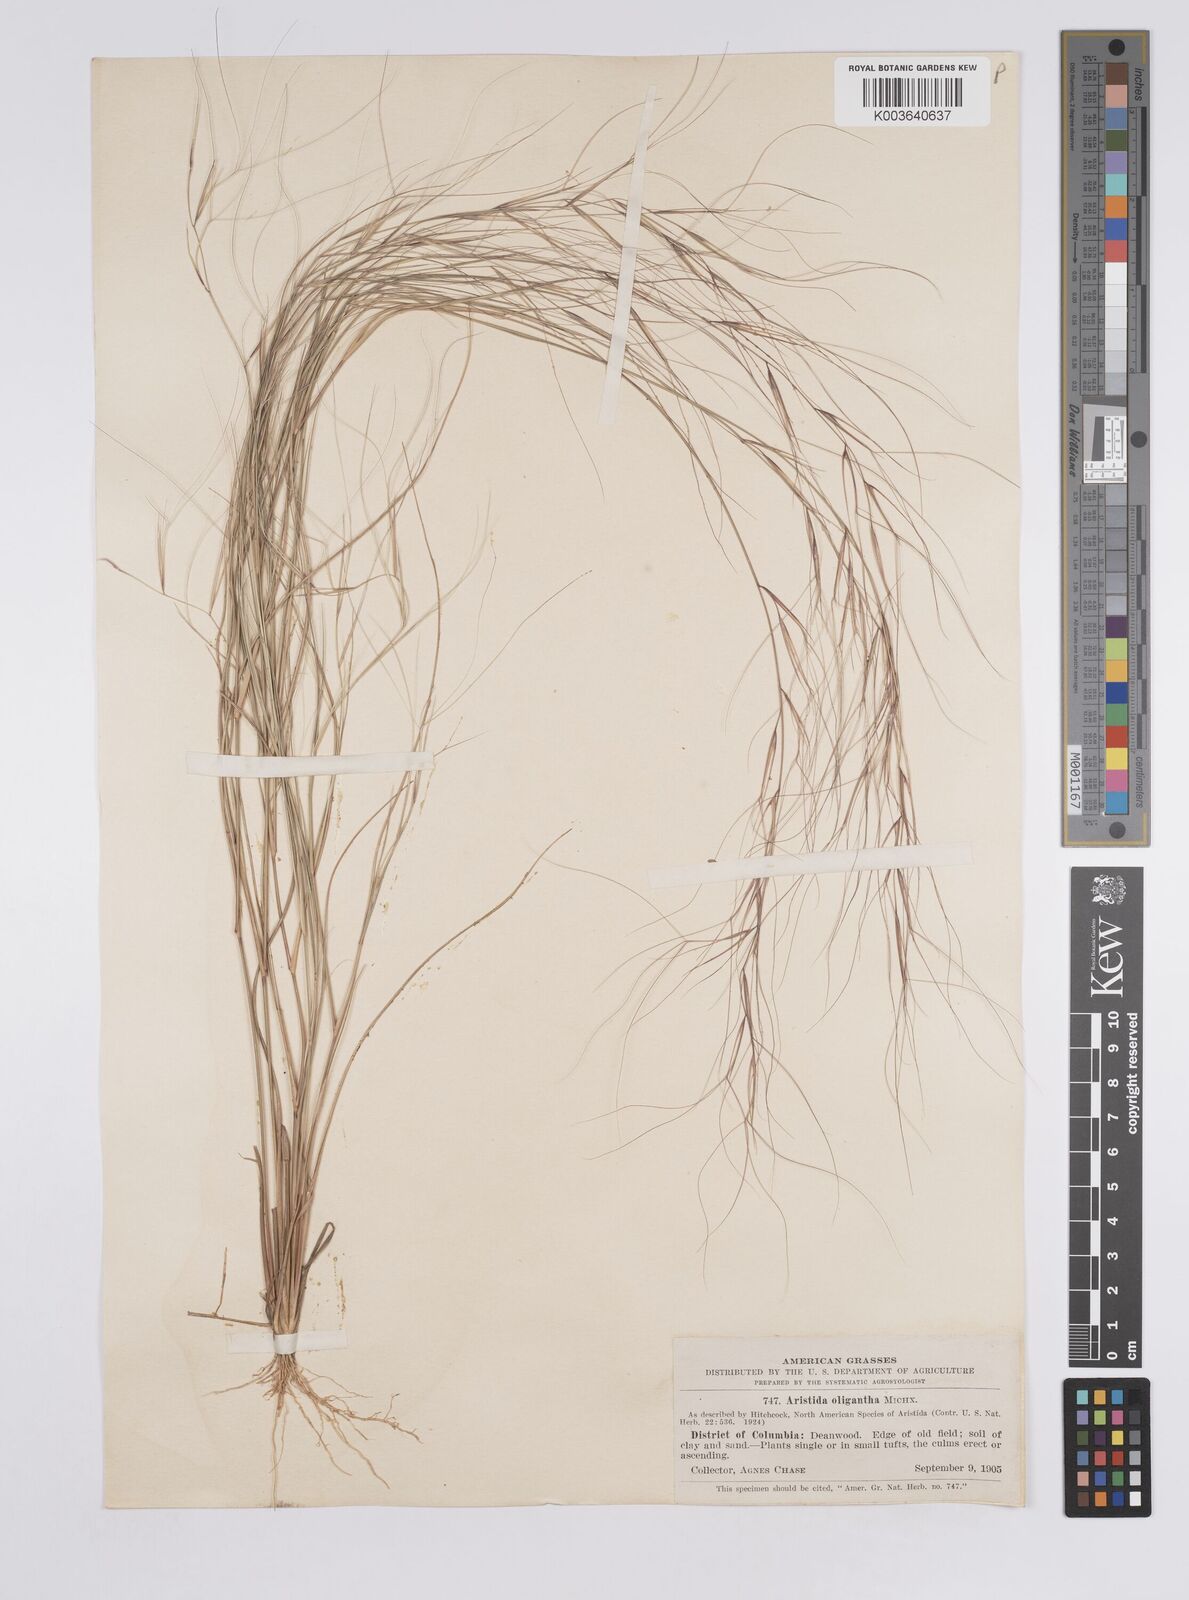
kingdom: Plantae
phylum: Tracheophyta
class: Liliopsida
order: Poales
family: Poaceae
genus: Aristida
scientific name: Aristida oligantha
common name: Few-flowered aristida
